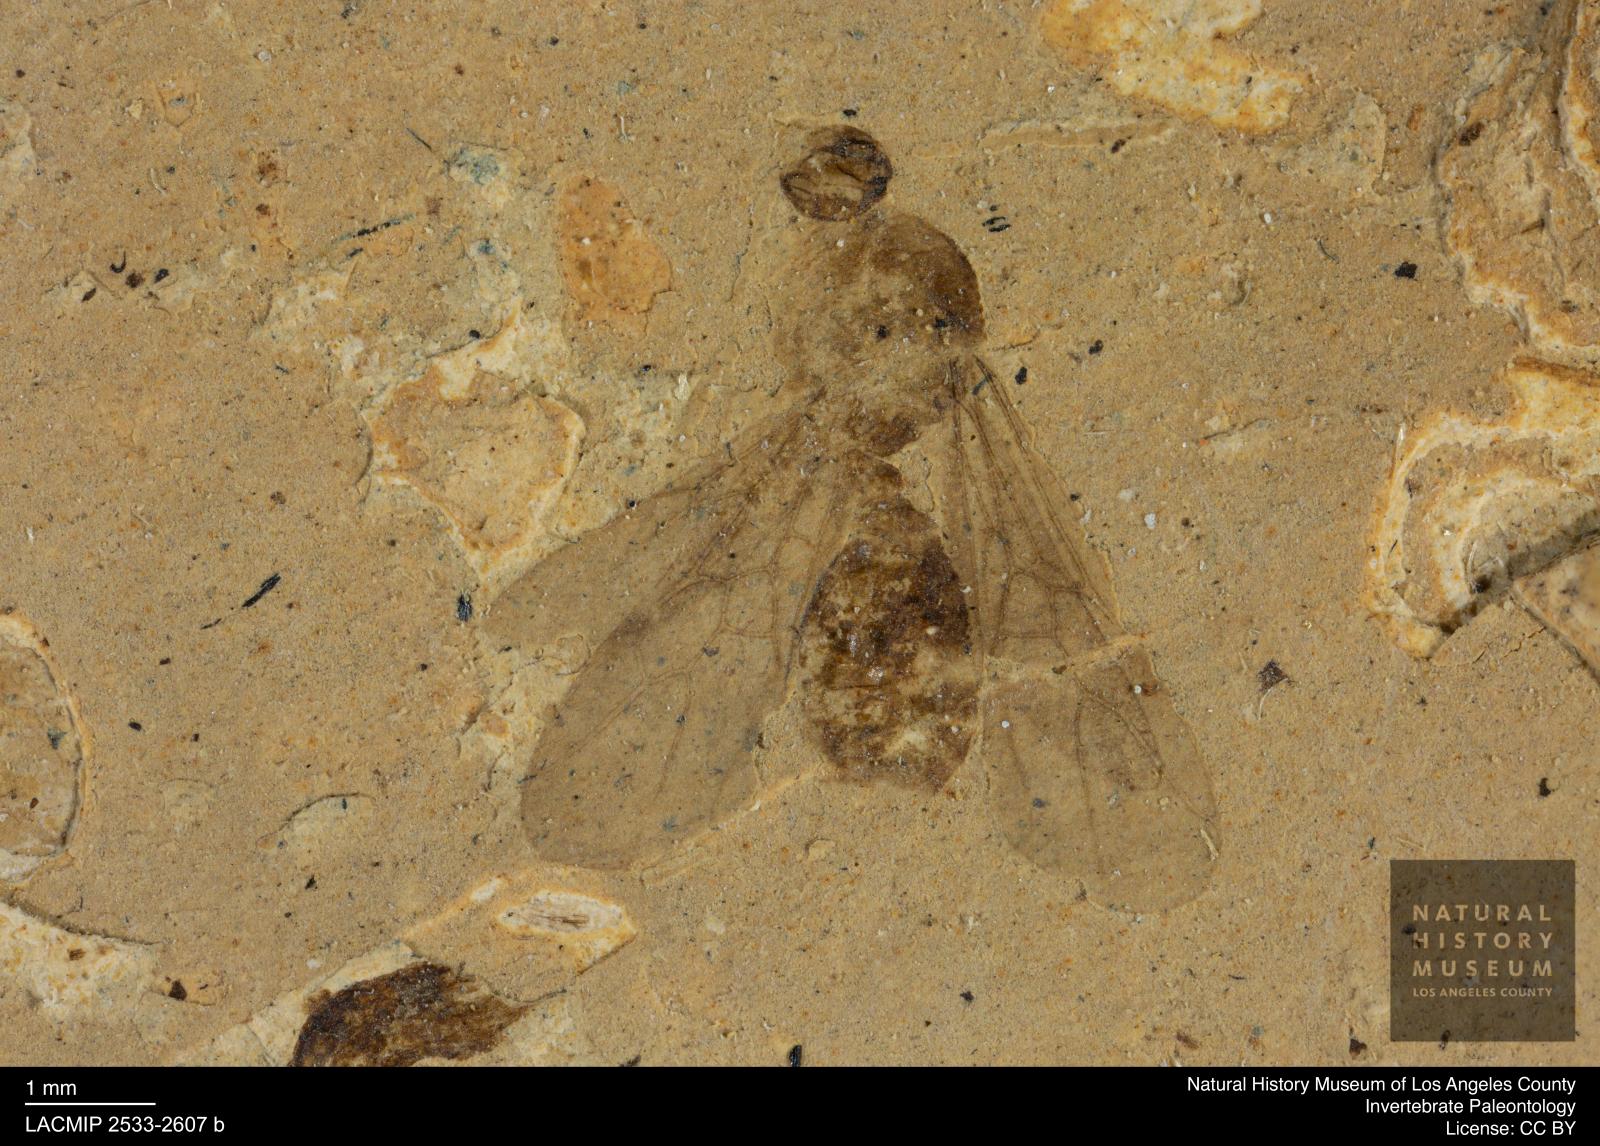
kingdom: Animalia
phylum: Arthropoda
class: Insecta
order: Hymenoptera
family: Formicidae
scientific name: Formicidae
